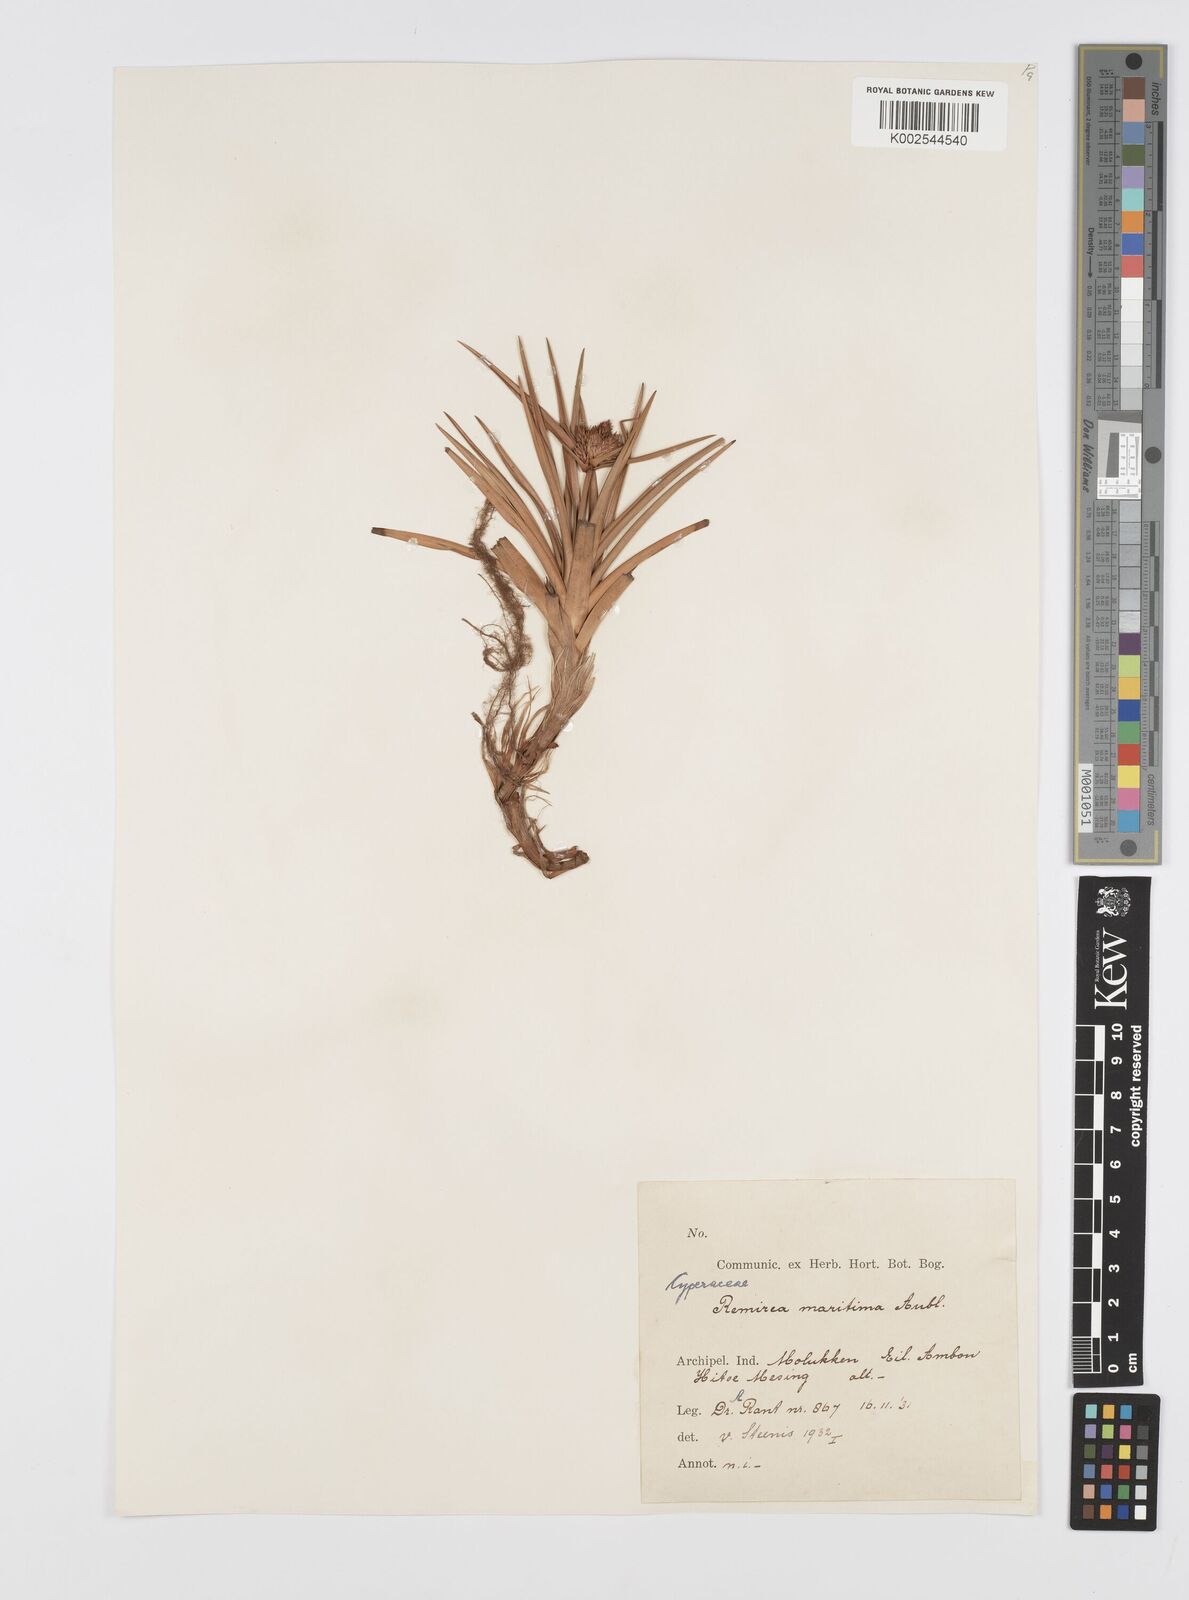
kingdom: Plantae
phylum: Tracheophyta
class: Liliopsida
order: Poales
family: Cyperaceae
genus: Cyperus
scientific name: Cyperus
